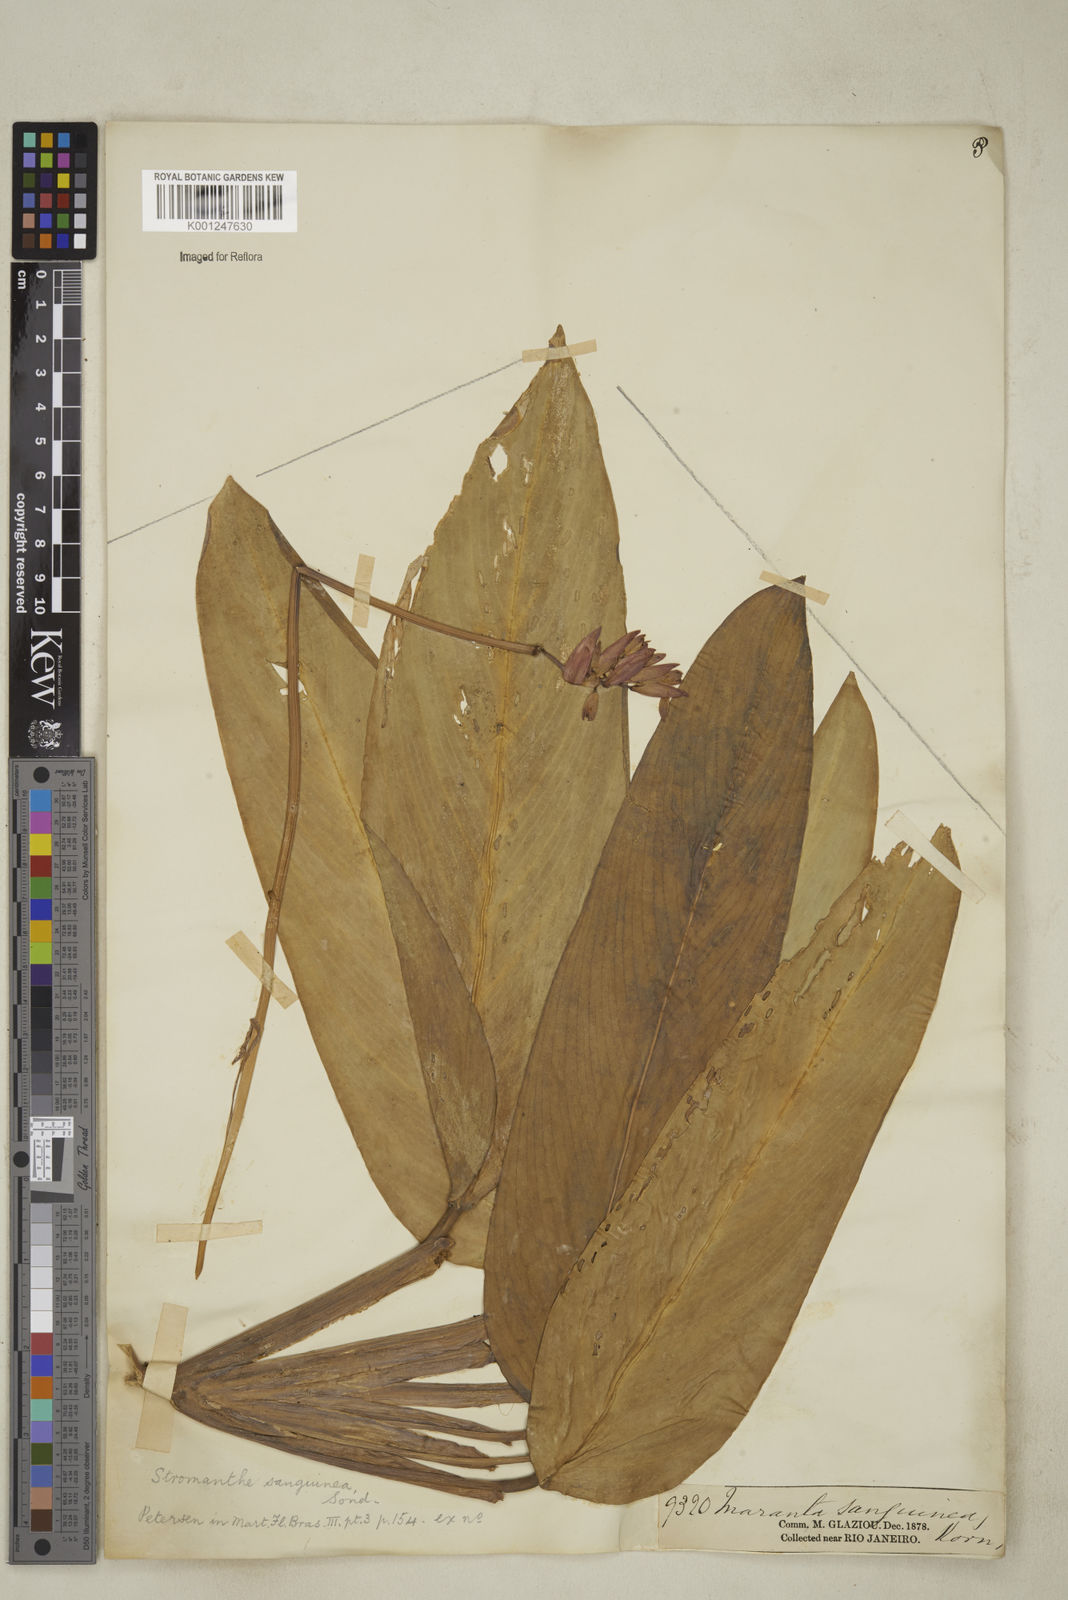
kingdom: Plantae
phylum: Tracheophyta
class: Liliopsida
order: Zingiberales
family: Marantaceae
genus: Stromanthe
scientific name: Stromanthe thalia
